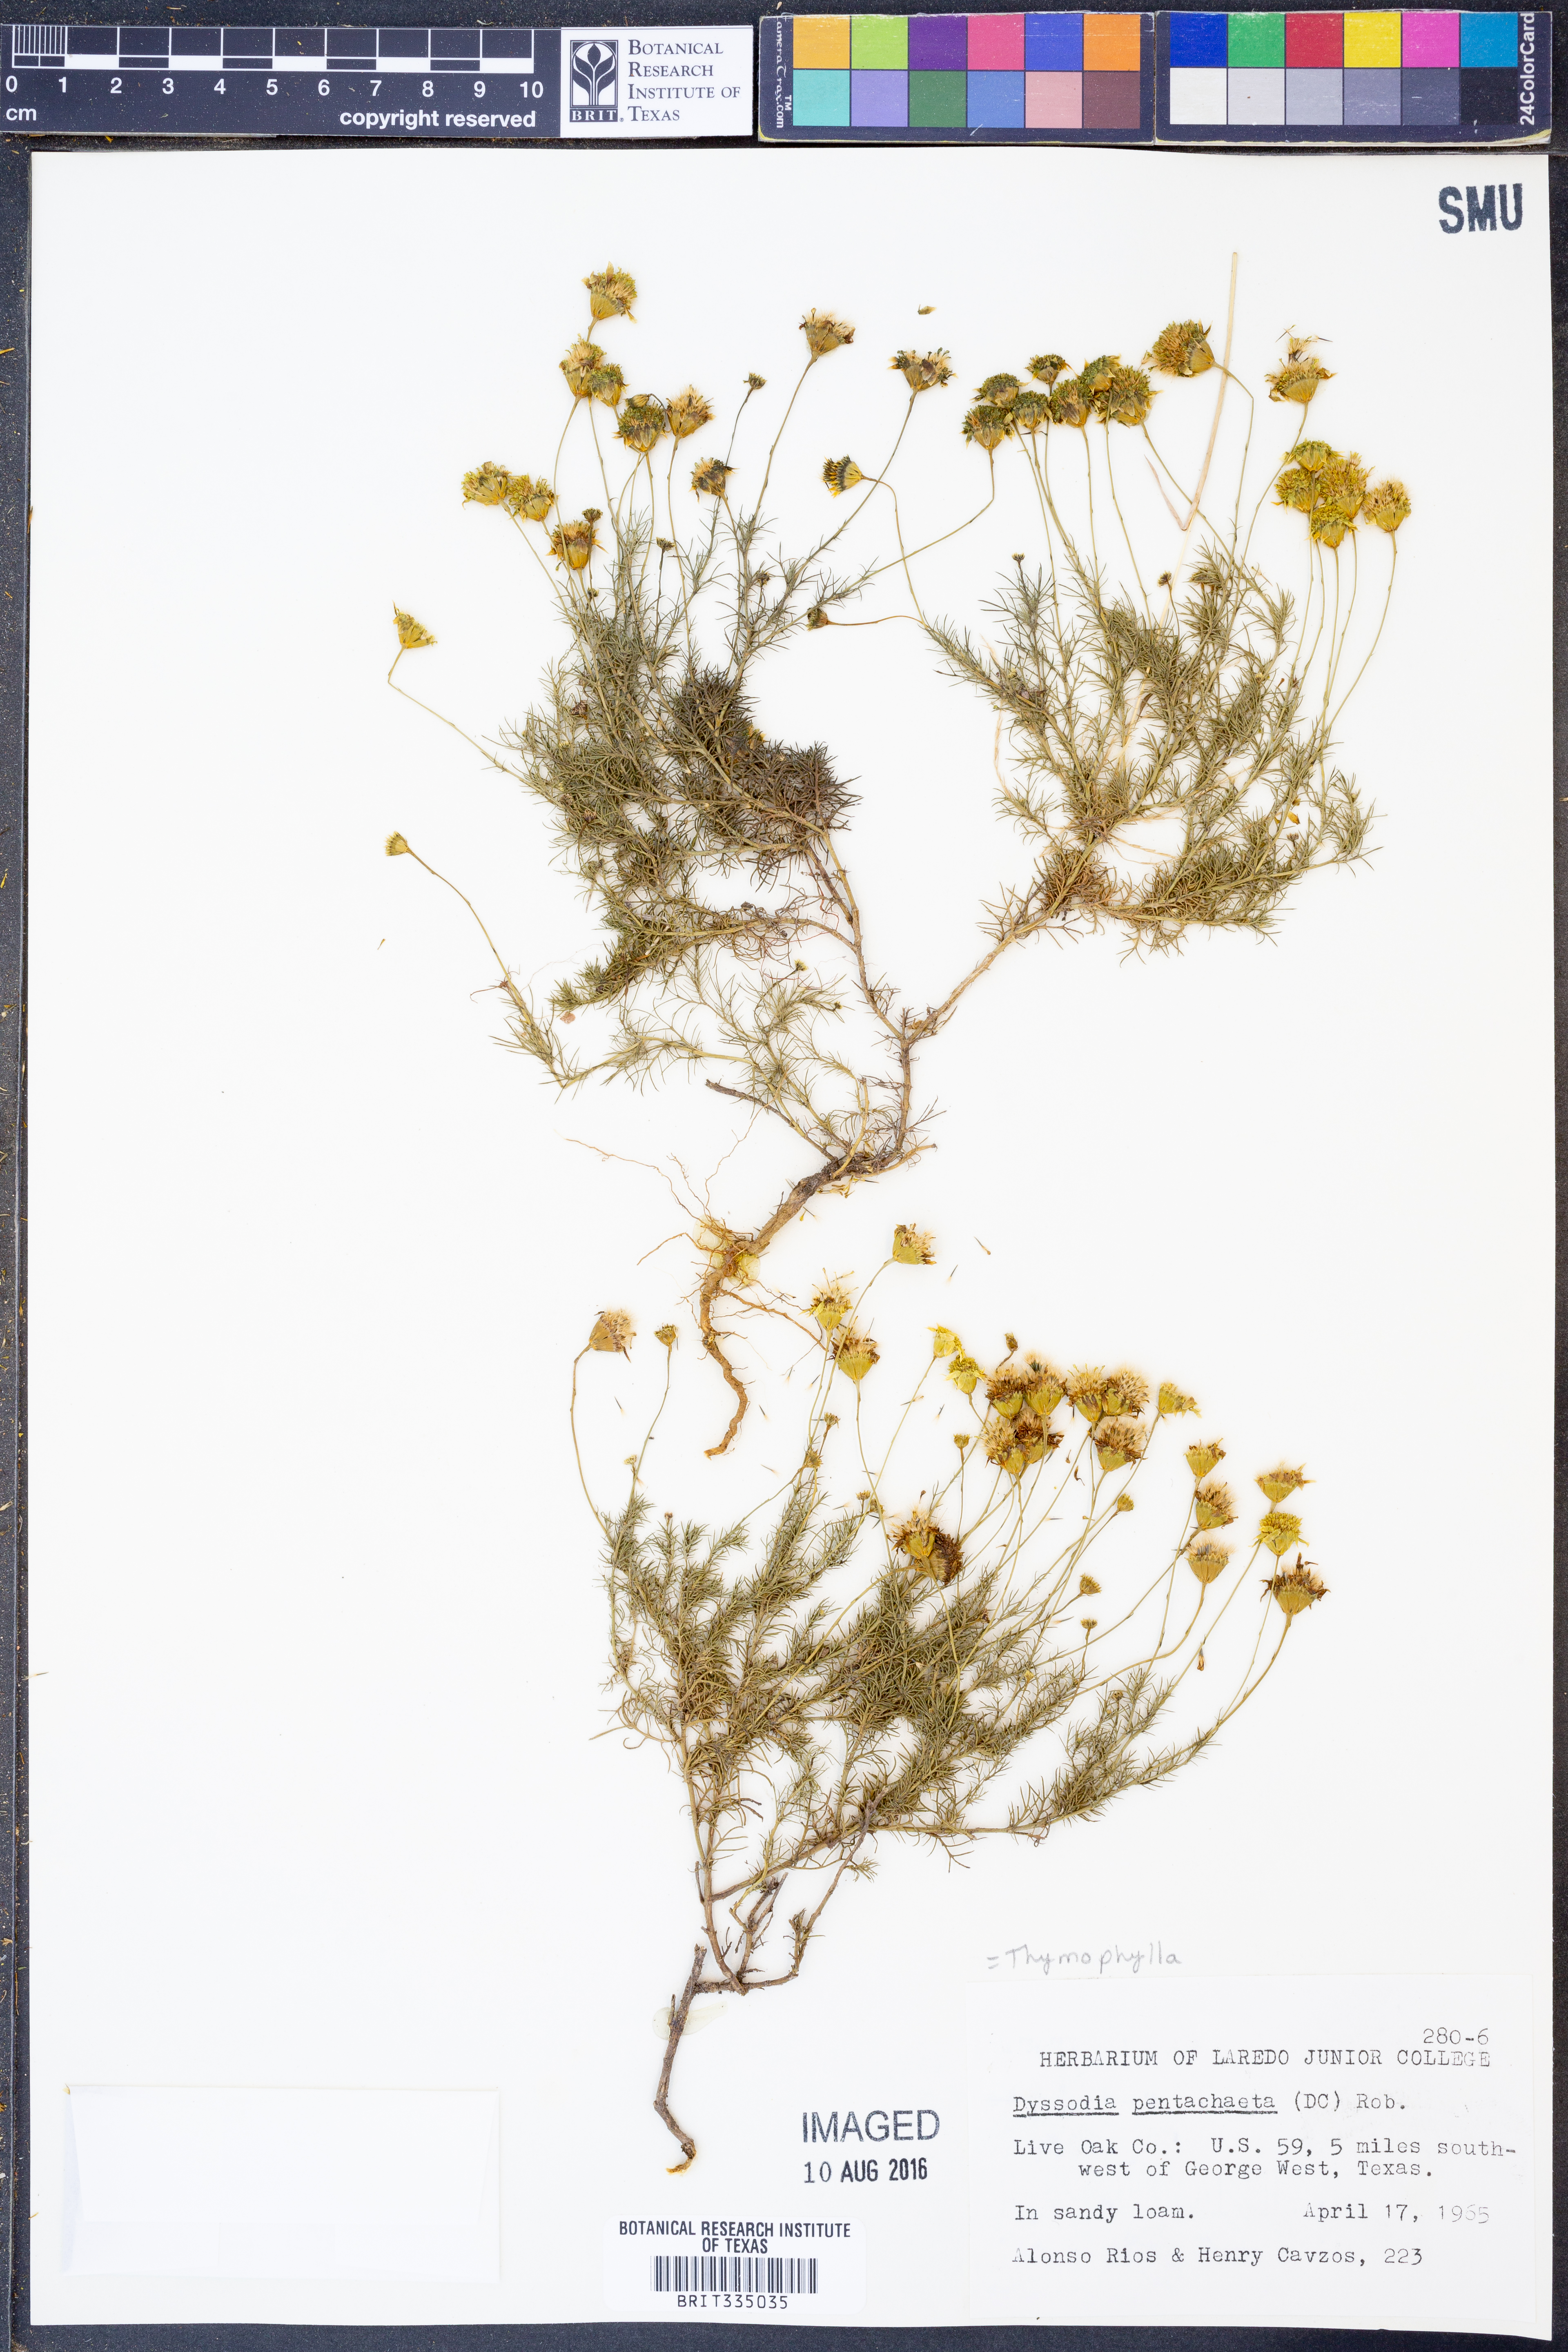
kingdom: Plantae
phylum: Tracheophyta
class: Magnoliopsida
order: Asterales
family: Asteraceae
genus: Thymophylla
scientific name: Thymophylla pentachaeta
